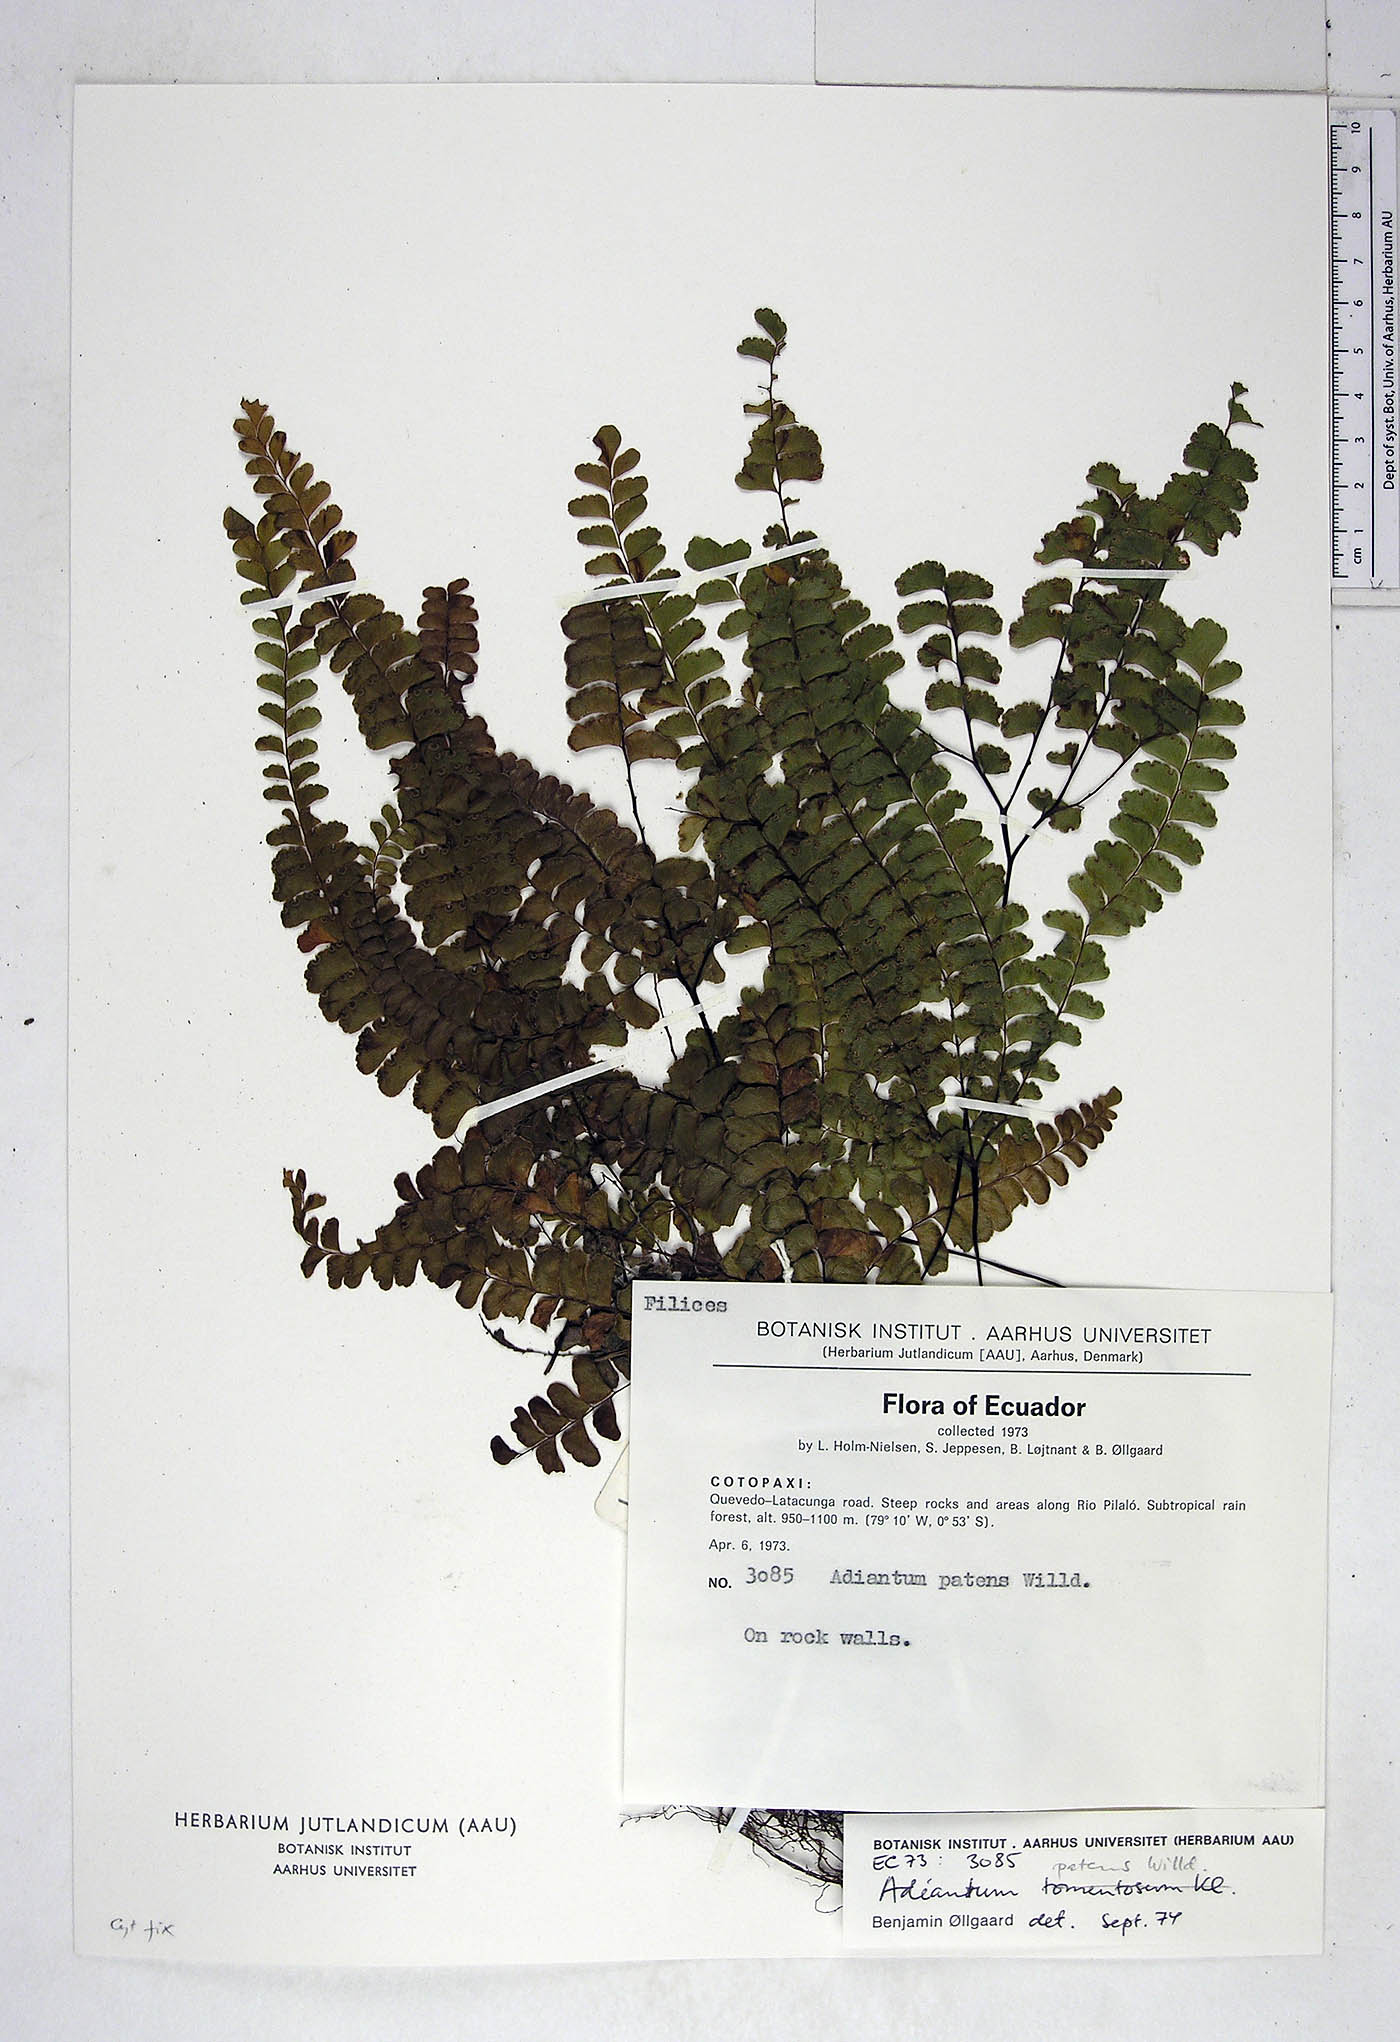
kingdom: Plantae
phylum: Tracheophyta
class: Polypodiopsida
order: Polypodiales
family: Pteridaceae
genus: Adiantum
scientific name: Adiantum patens
